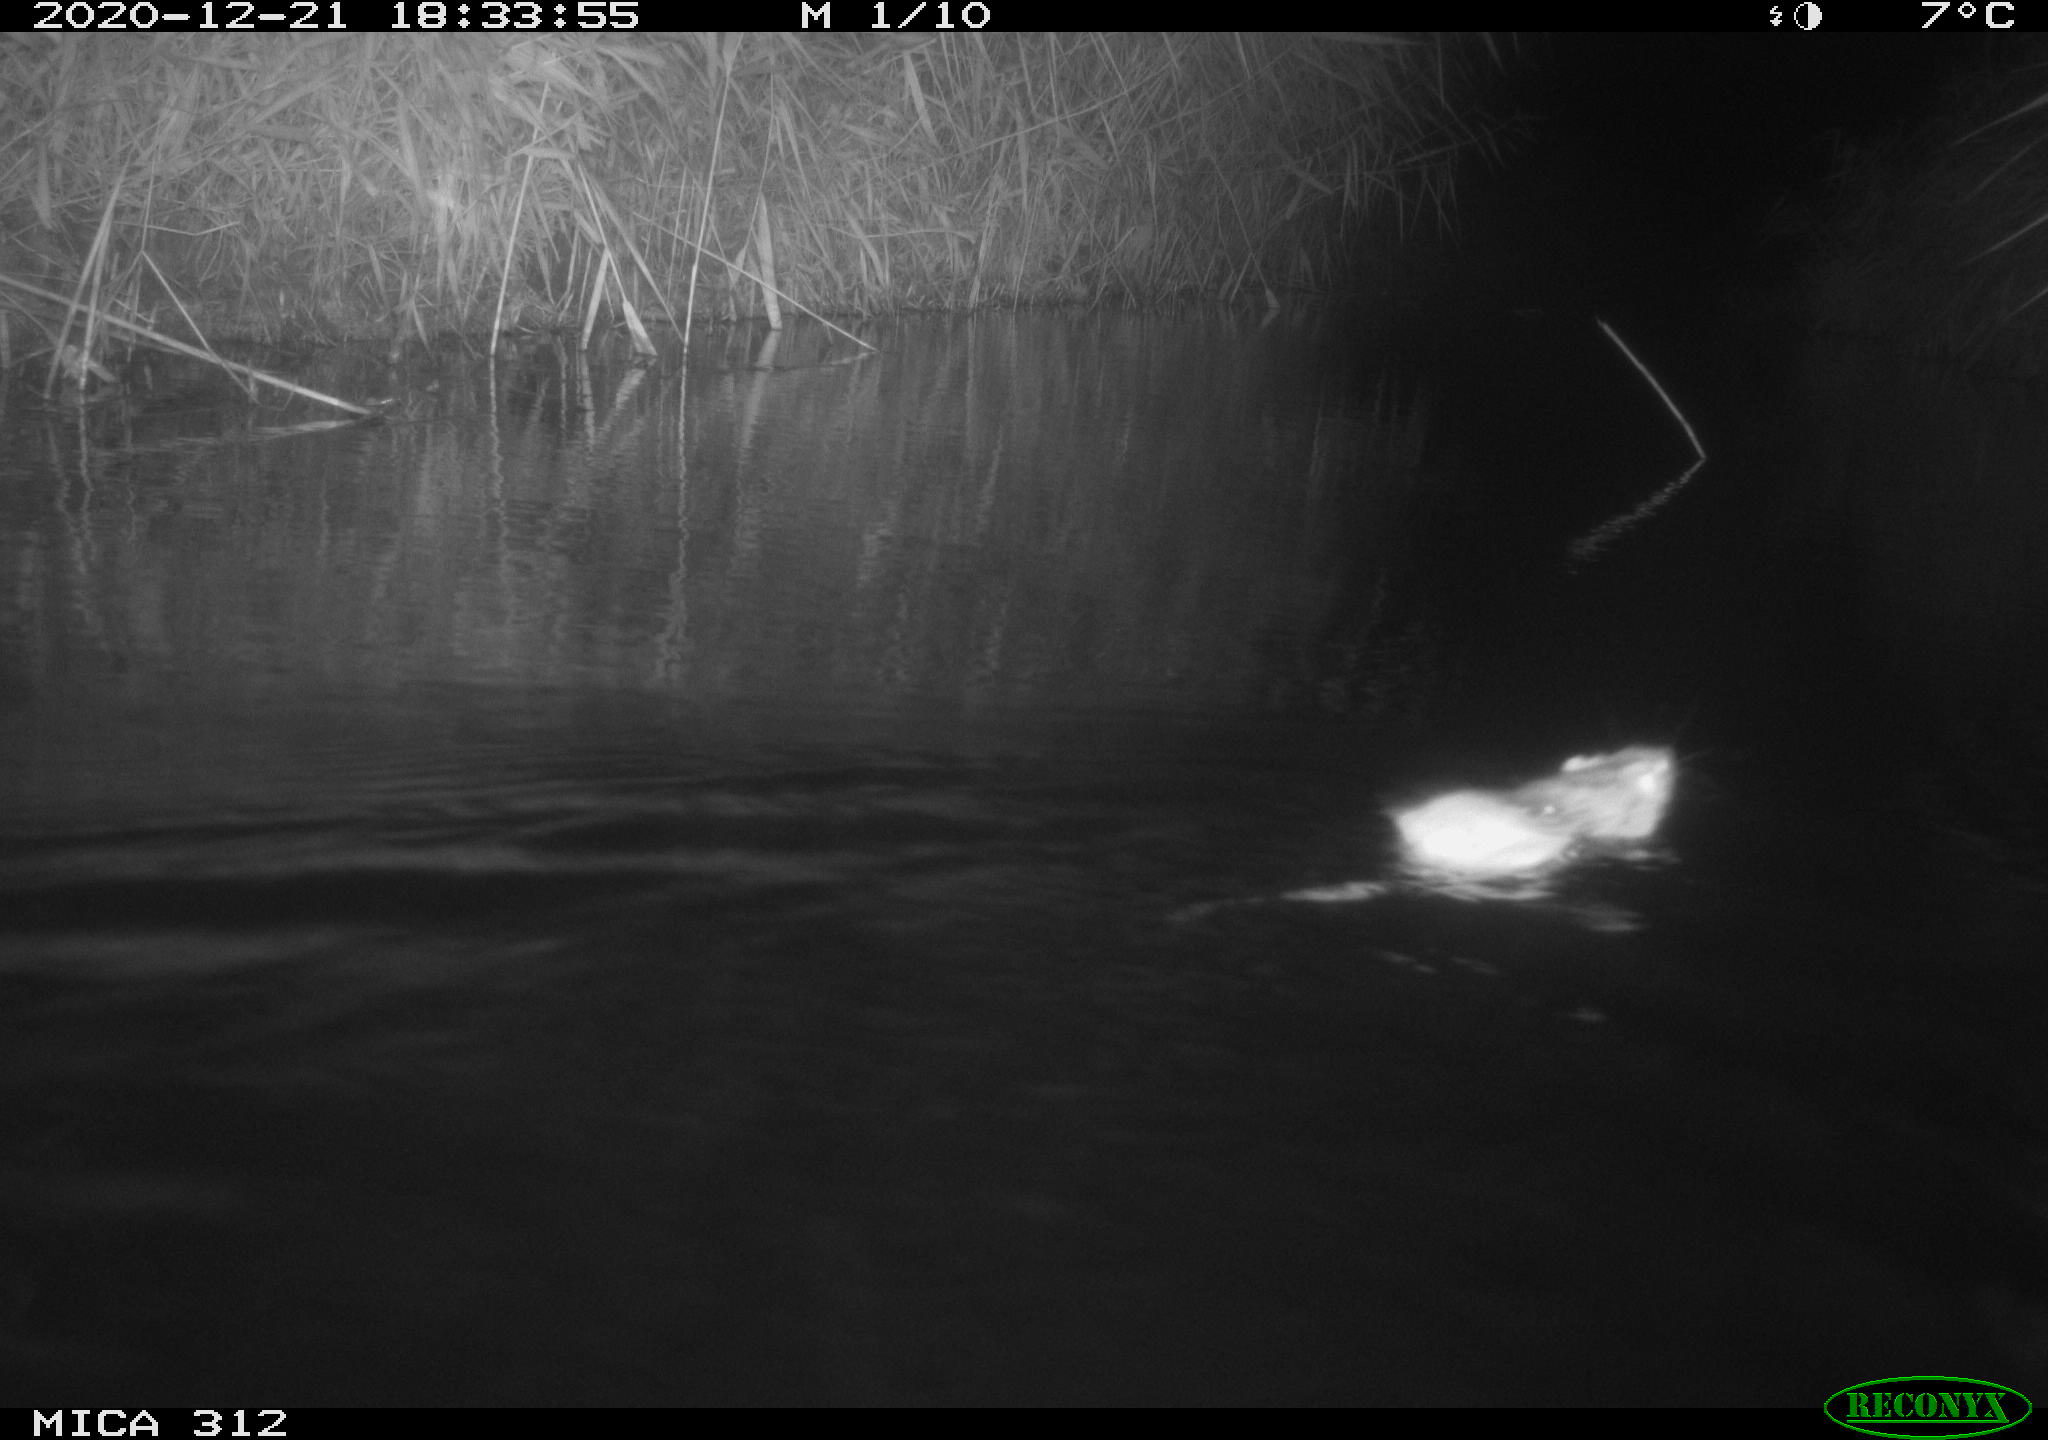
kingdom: Animalia
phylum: Chordata
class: Mammalia
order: Rodentia
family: Muridae
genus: Rattus
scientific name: Rattus norvegicus
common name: Brown rat
